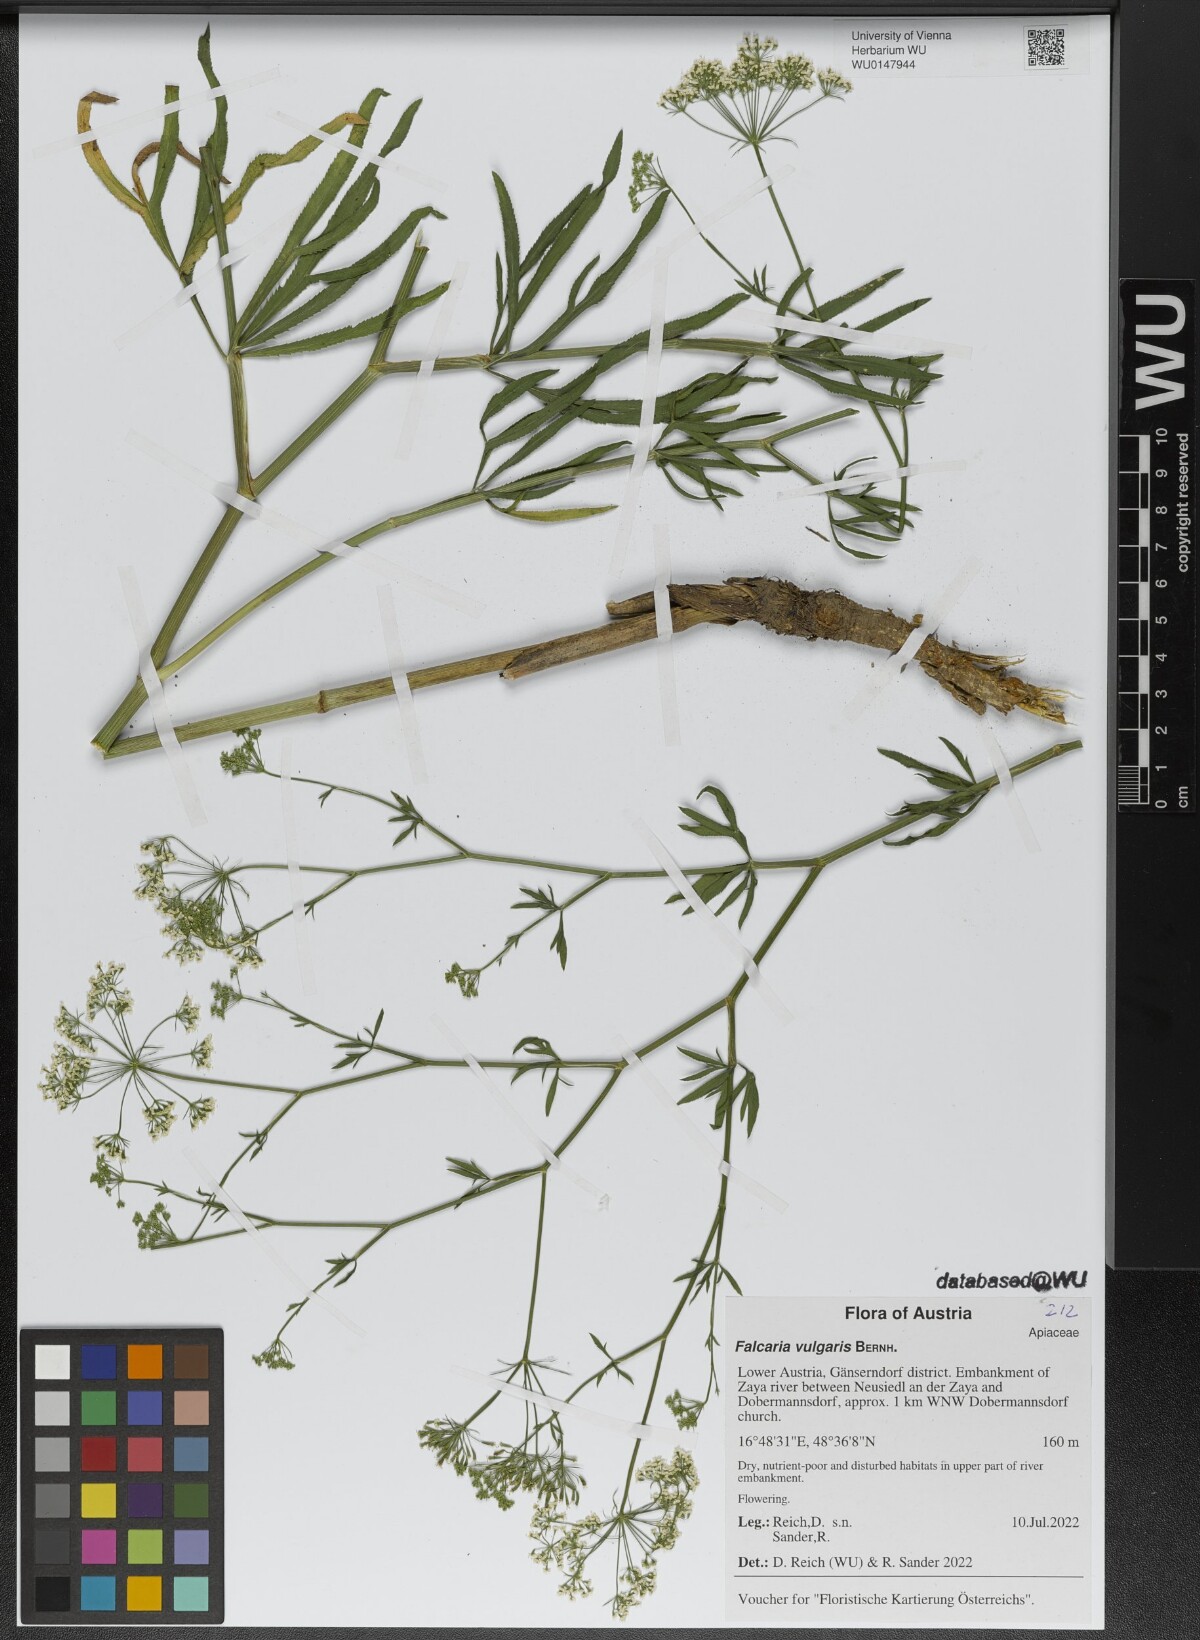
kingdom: Plantae
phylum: Tracheophyta
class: Magnoliopsida
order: Apiales
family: Apiaceae
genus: Falcaria
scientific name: Falcaria vulgaris
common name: Longleaf
